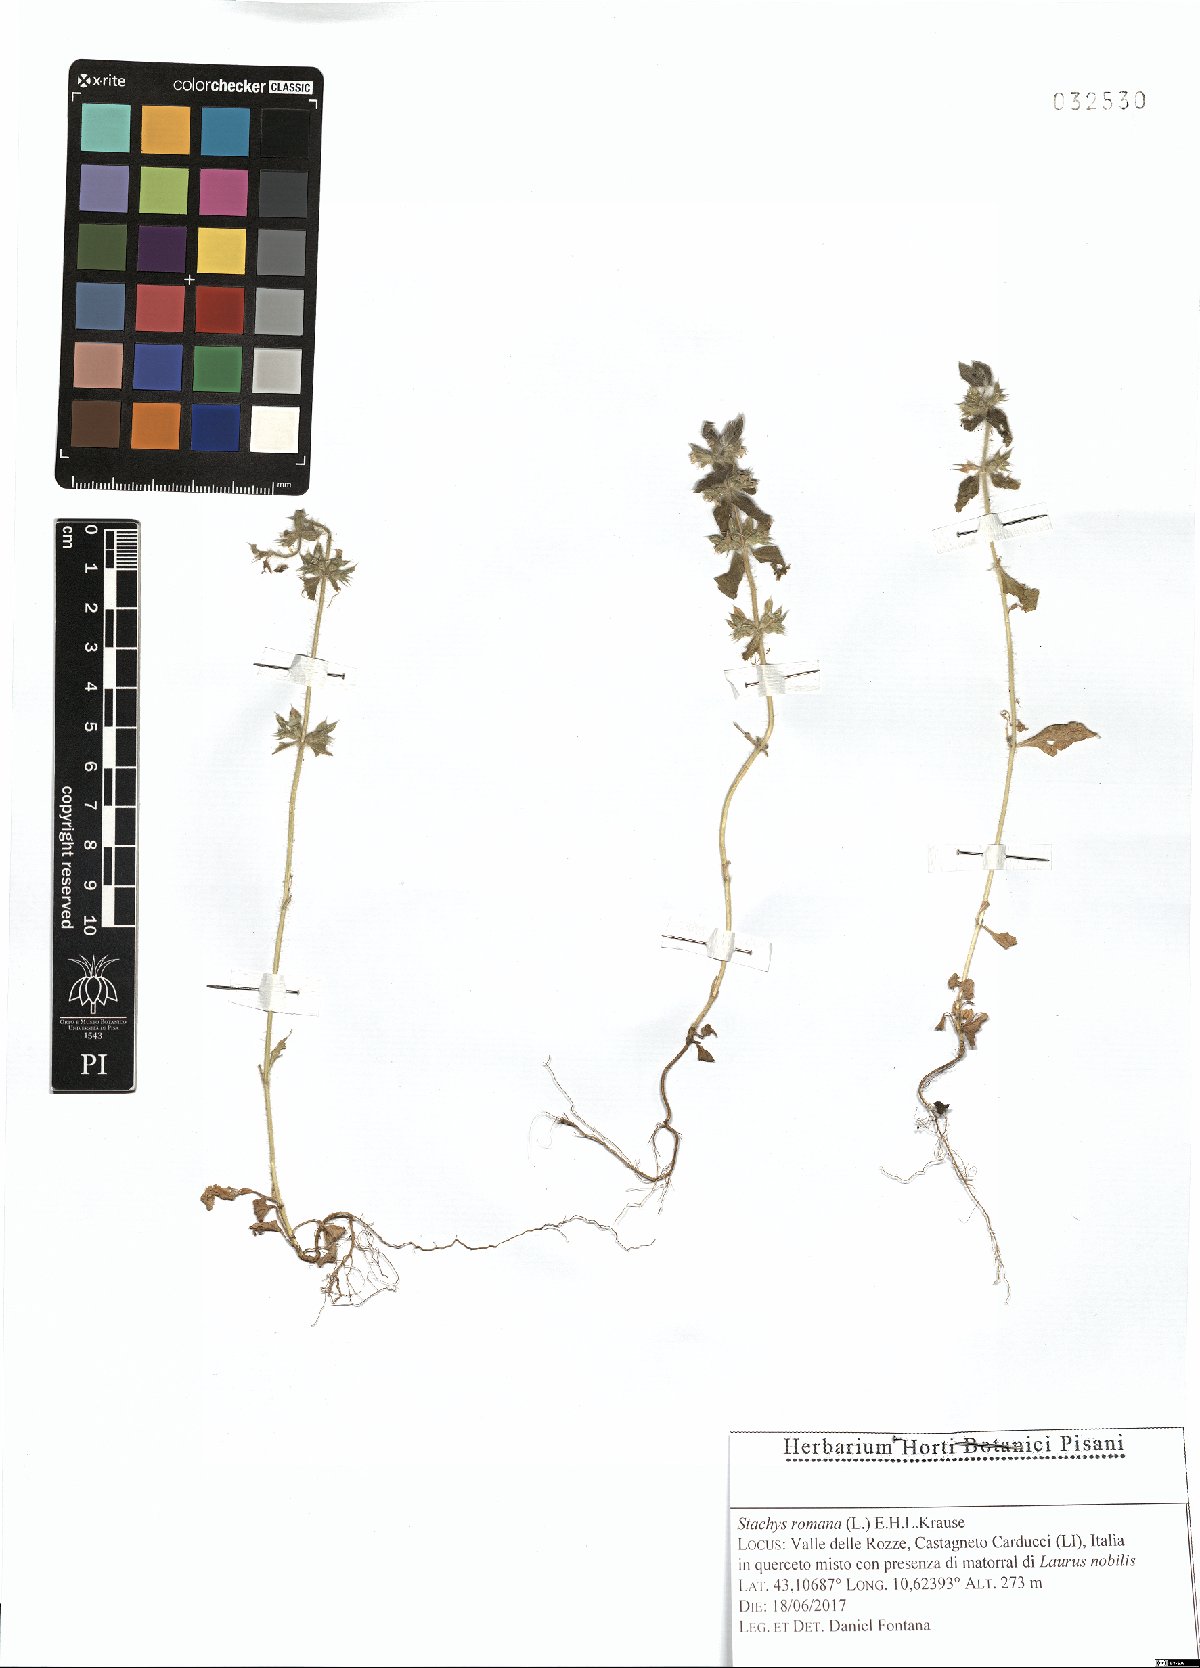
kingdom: Plantae
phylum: Tracheophyta
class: Magnoliopsida
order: Lamiales
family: Lamiaceae
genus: Sideritis
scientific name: Sideritis romana
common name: Simplebeak ironwort
